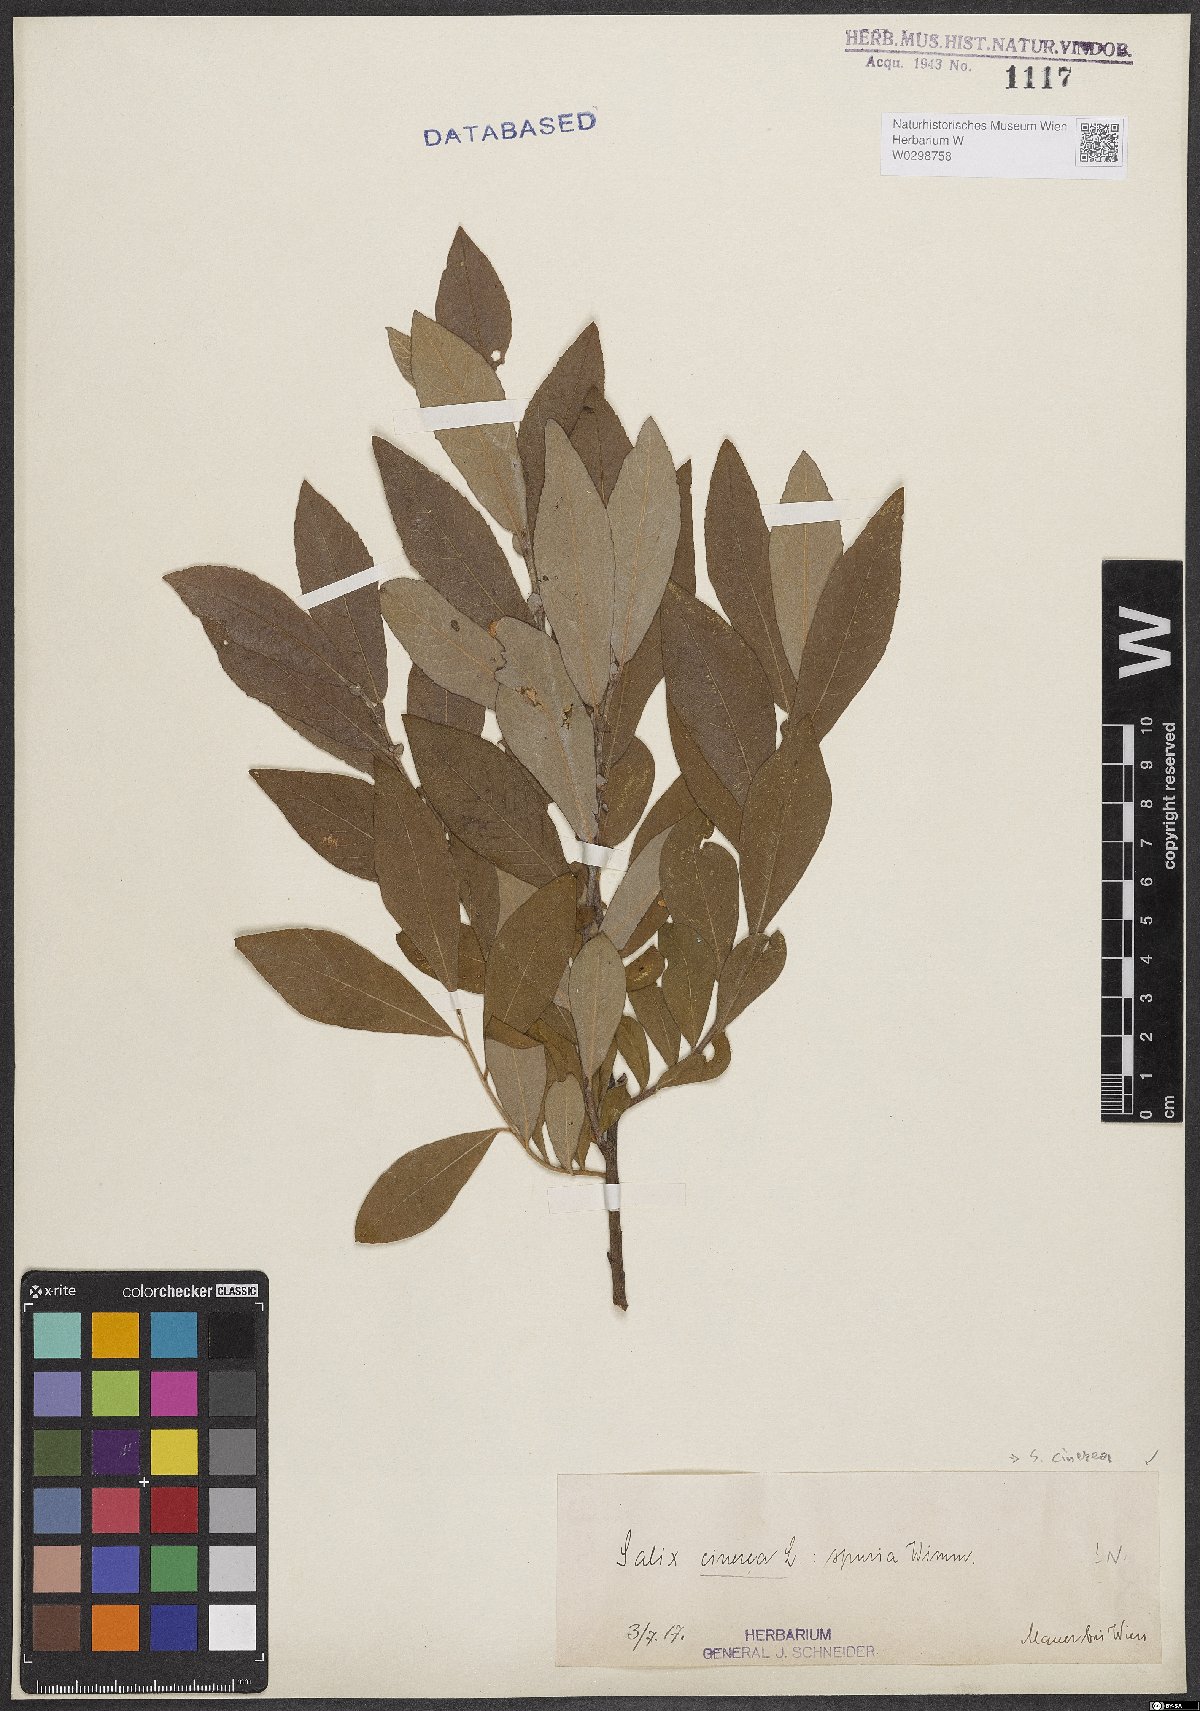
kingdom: Plantae
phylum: Tracheophyta
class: Magnoliopsida
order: Malpighiales
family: Salicaceae
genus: Salix
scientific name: Salix cinerea
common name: Common sallow
